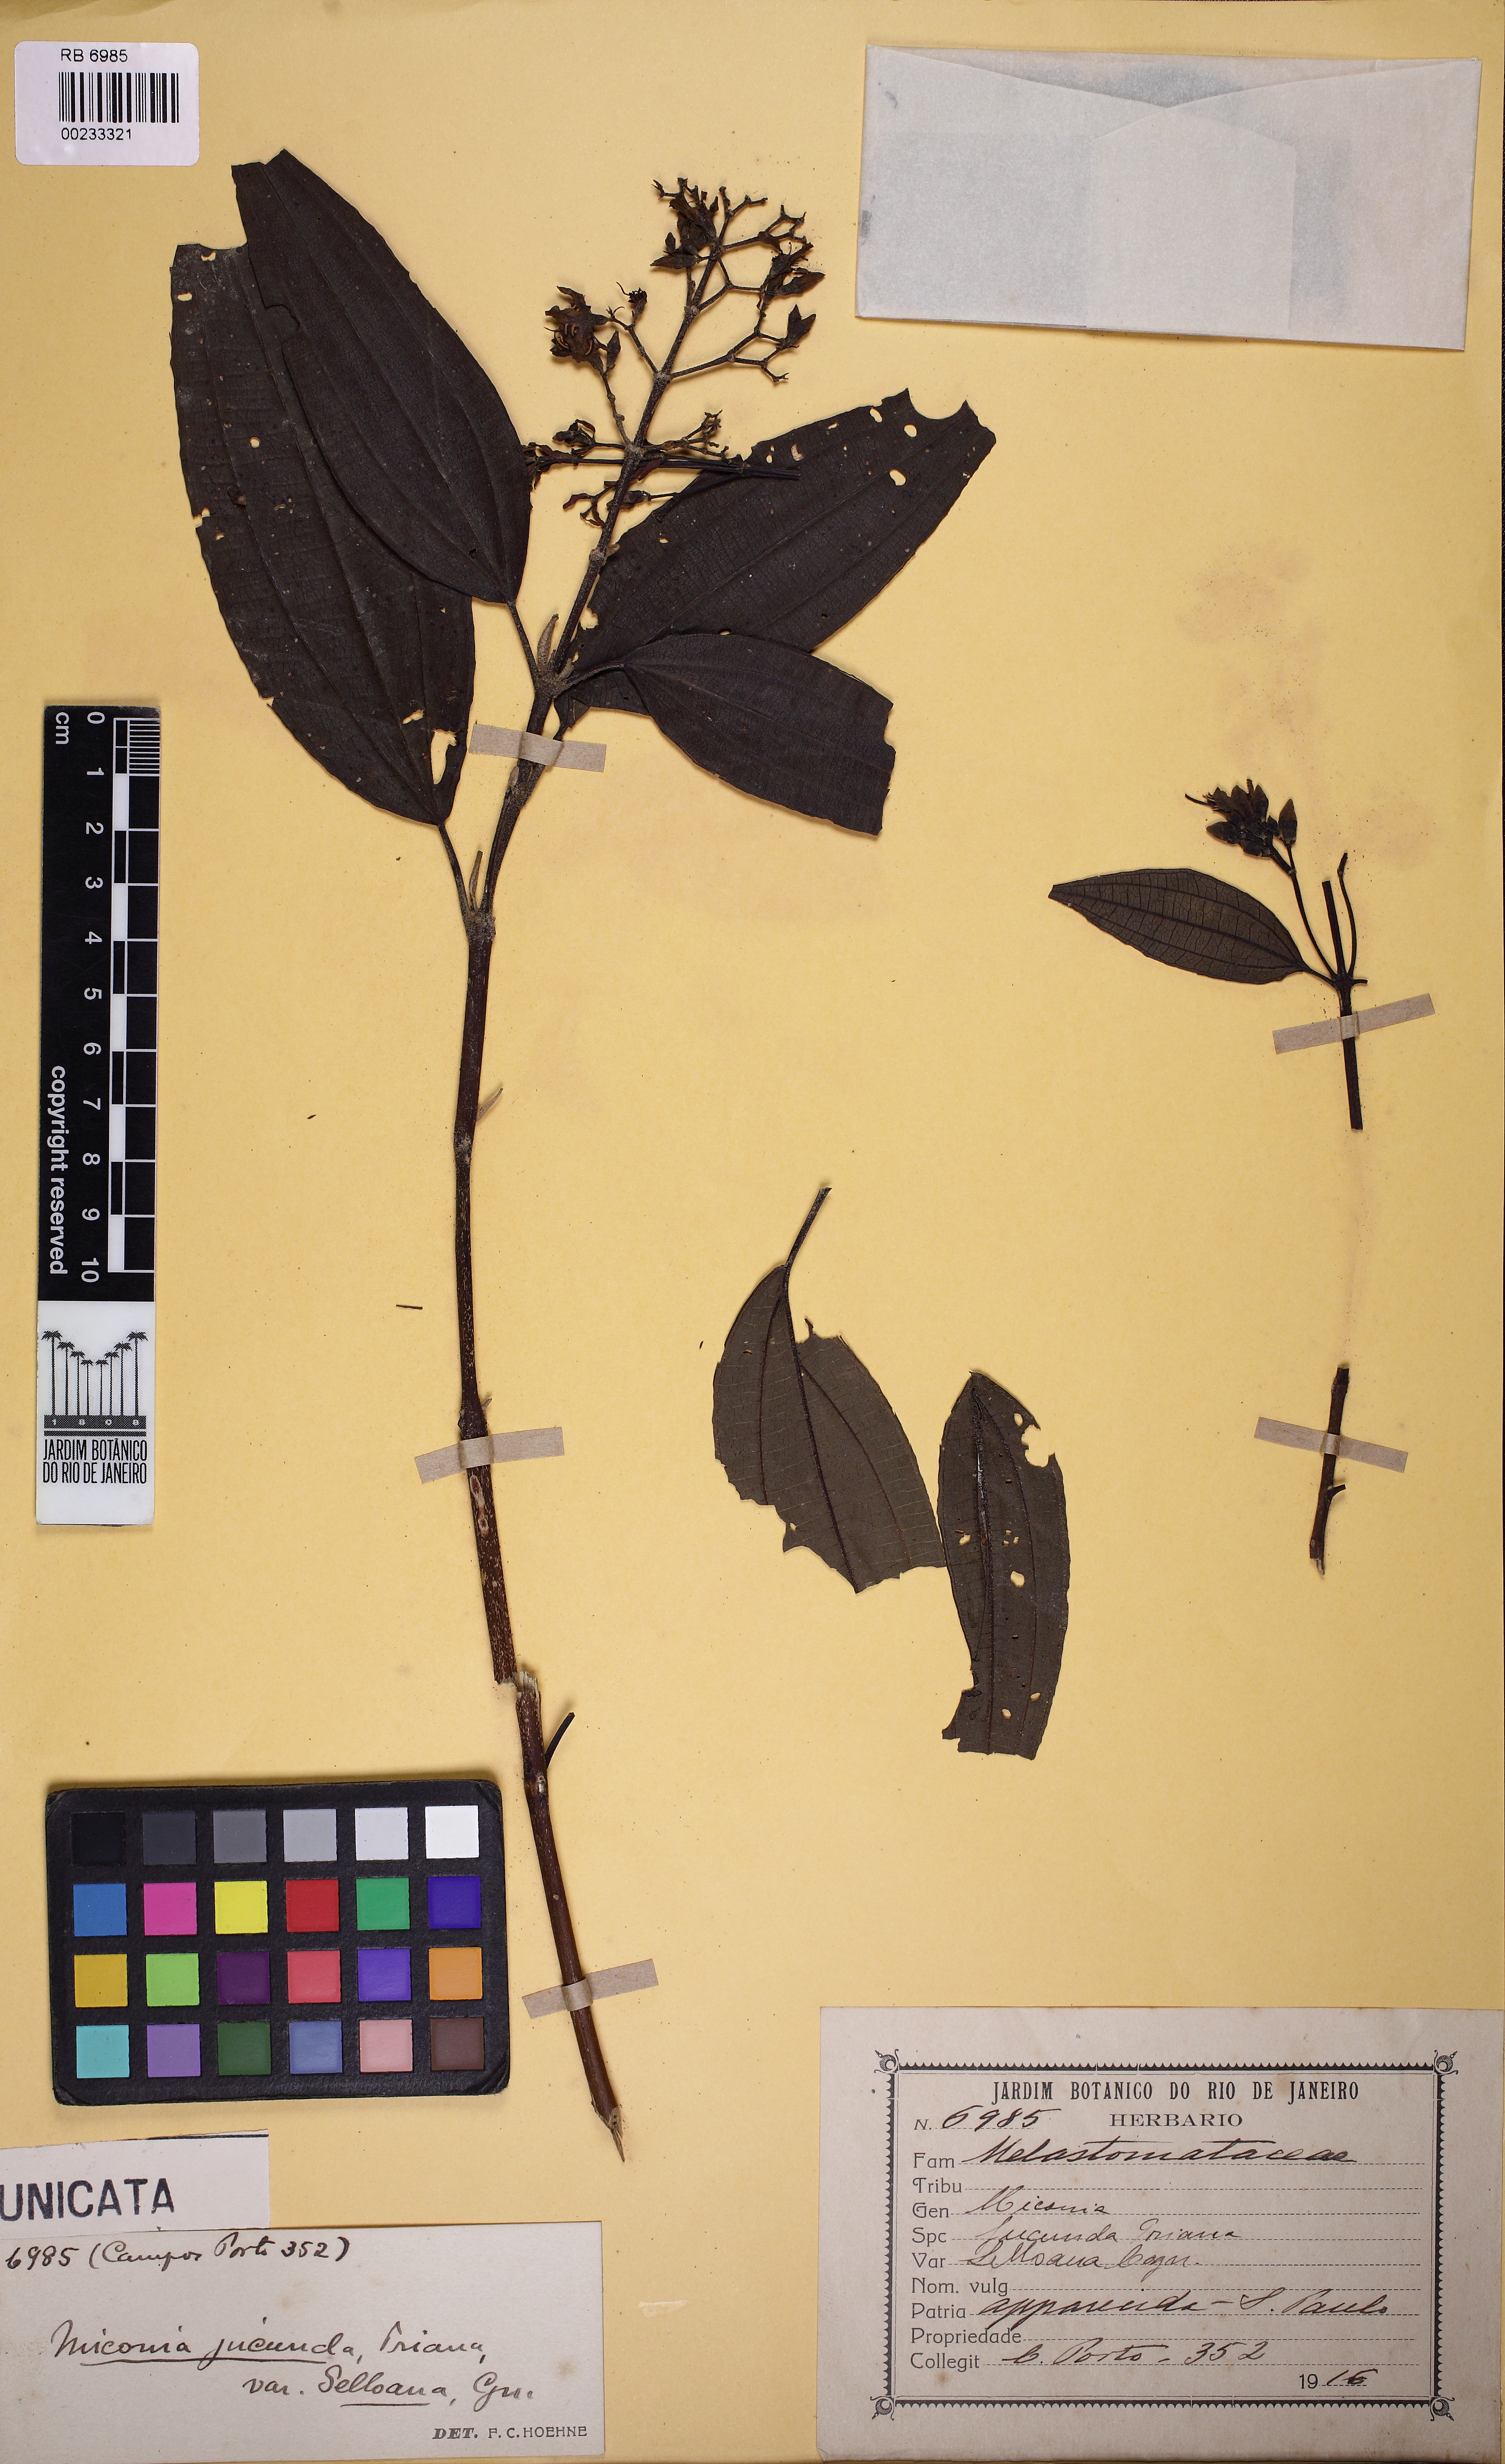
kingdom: Plantae
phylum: Tracheophyta
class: Magnoliopsida
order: Myrtales
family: Melastomataceae
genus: Miconia
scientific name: Miconia jucunda
